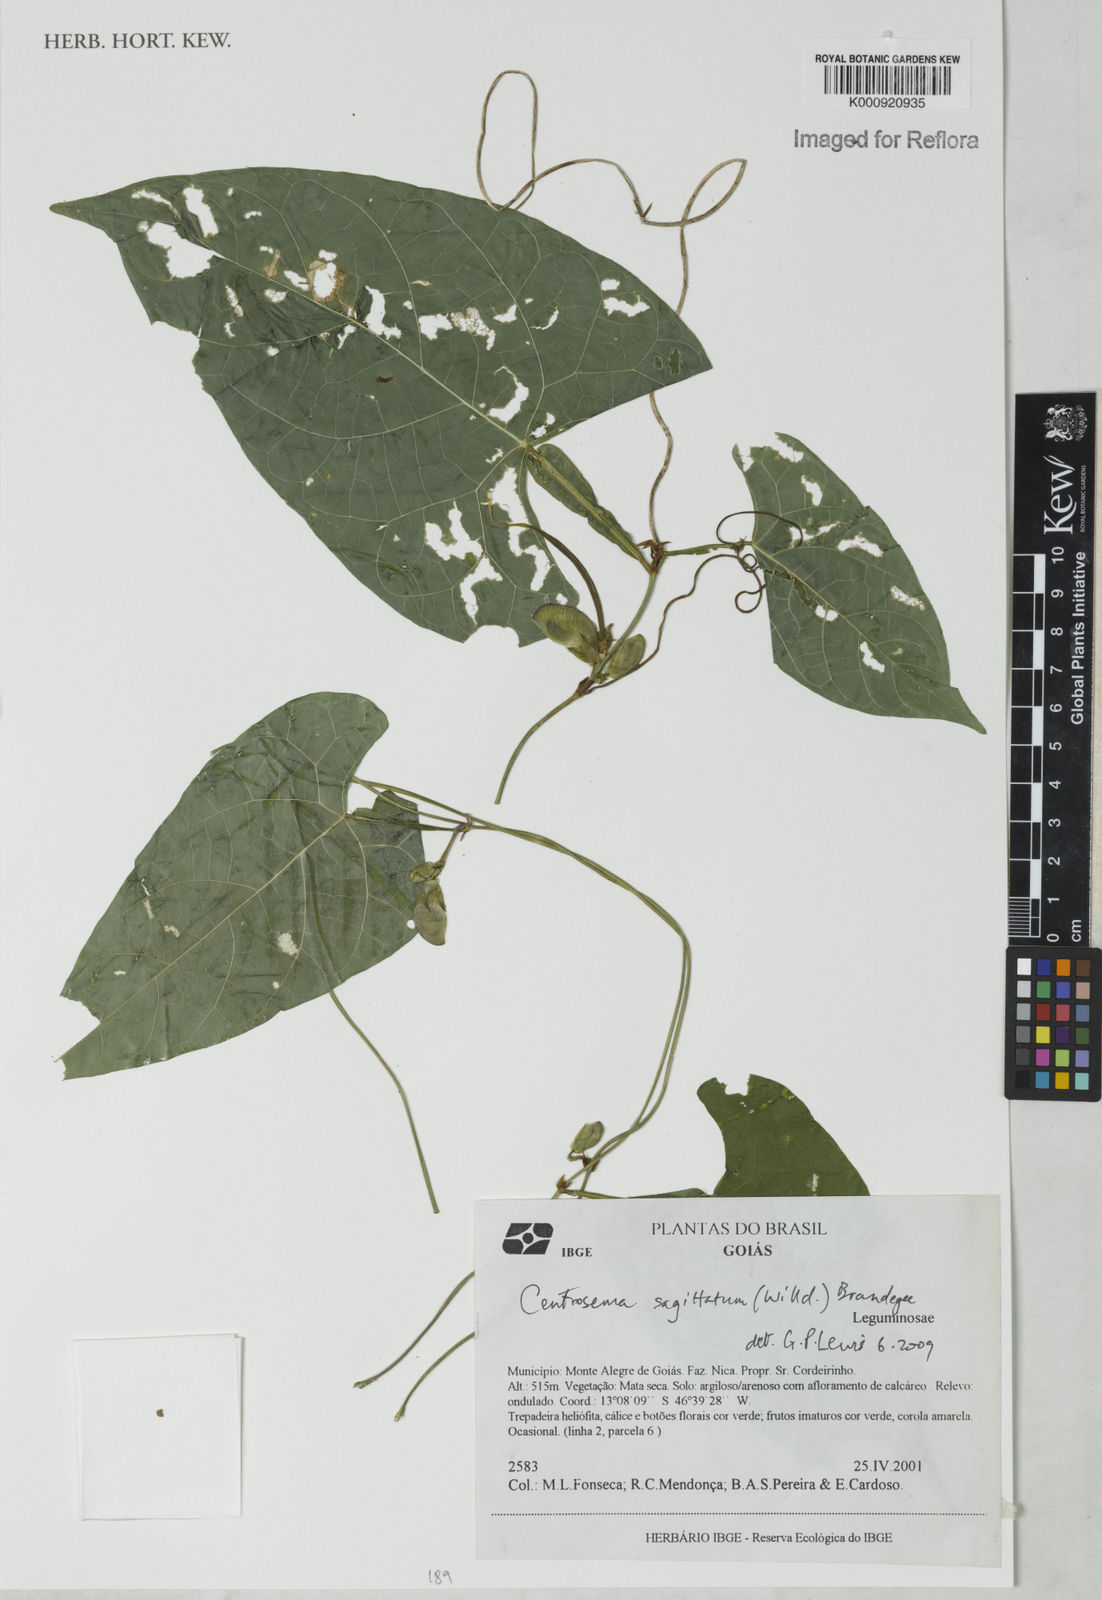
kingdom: Plantae
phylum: Tracheophyta
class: Magnoliopsida
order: Fabales
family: Fabaceae
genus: Centrosema
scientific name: Centrosema sagittatum
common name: Arrowleaf butterfly pea
